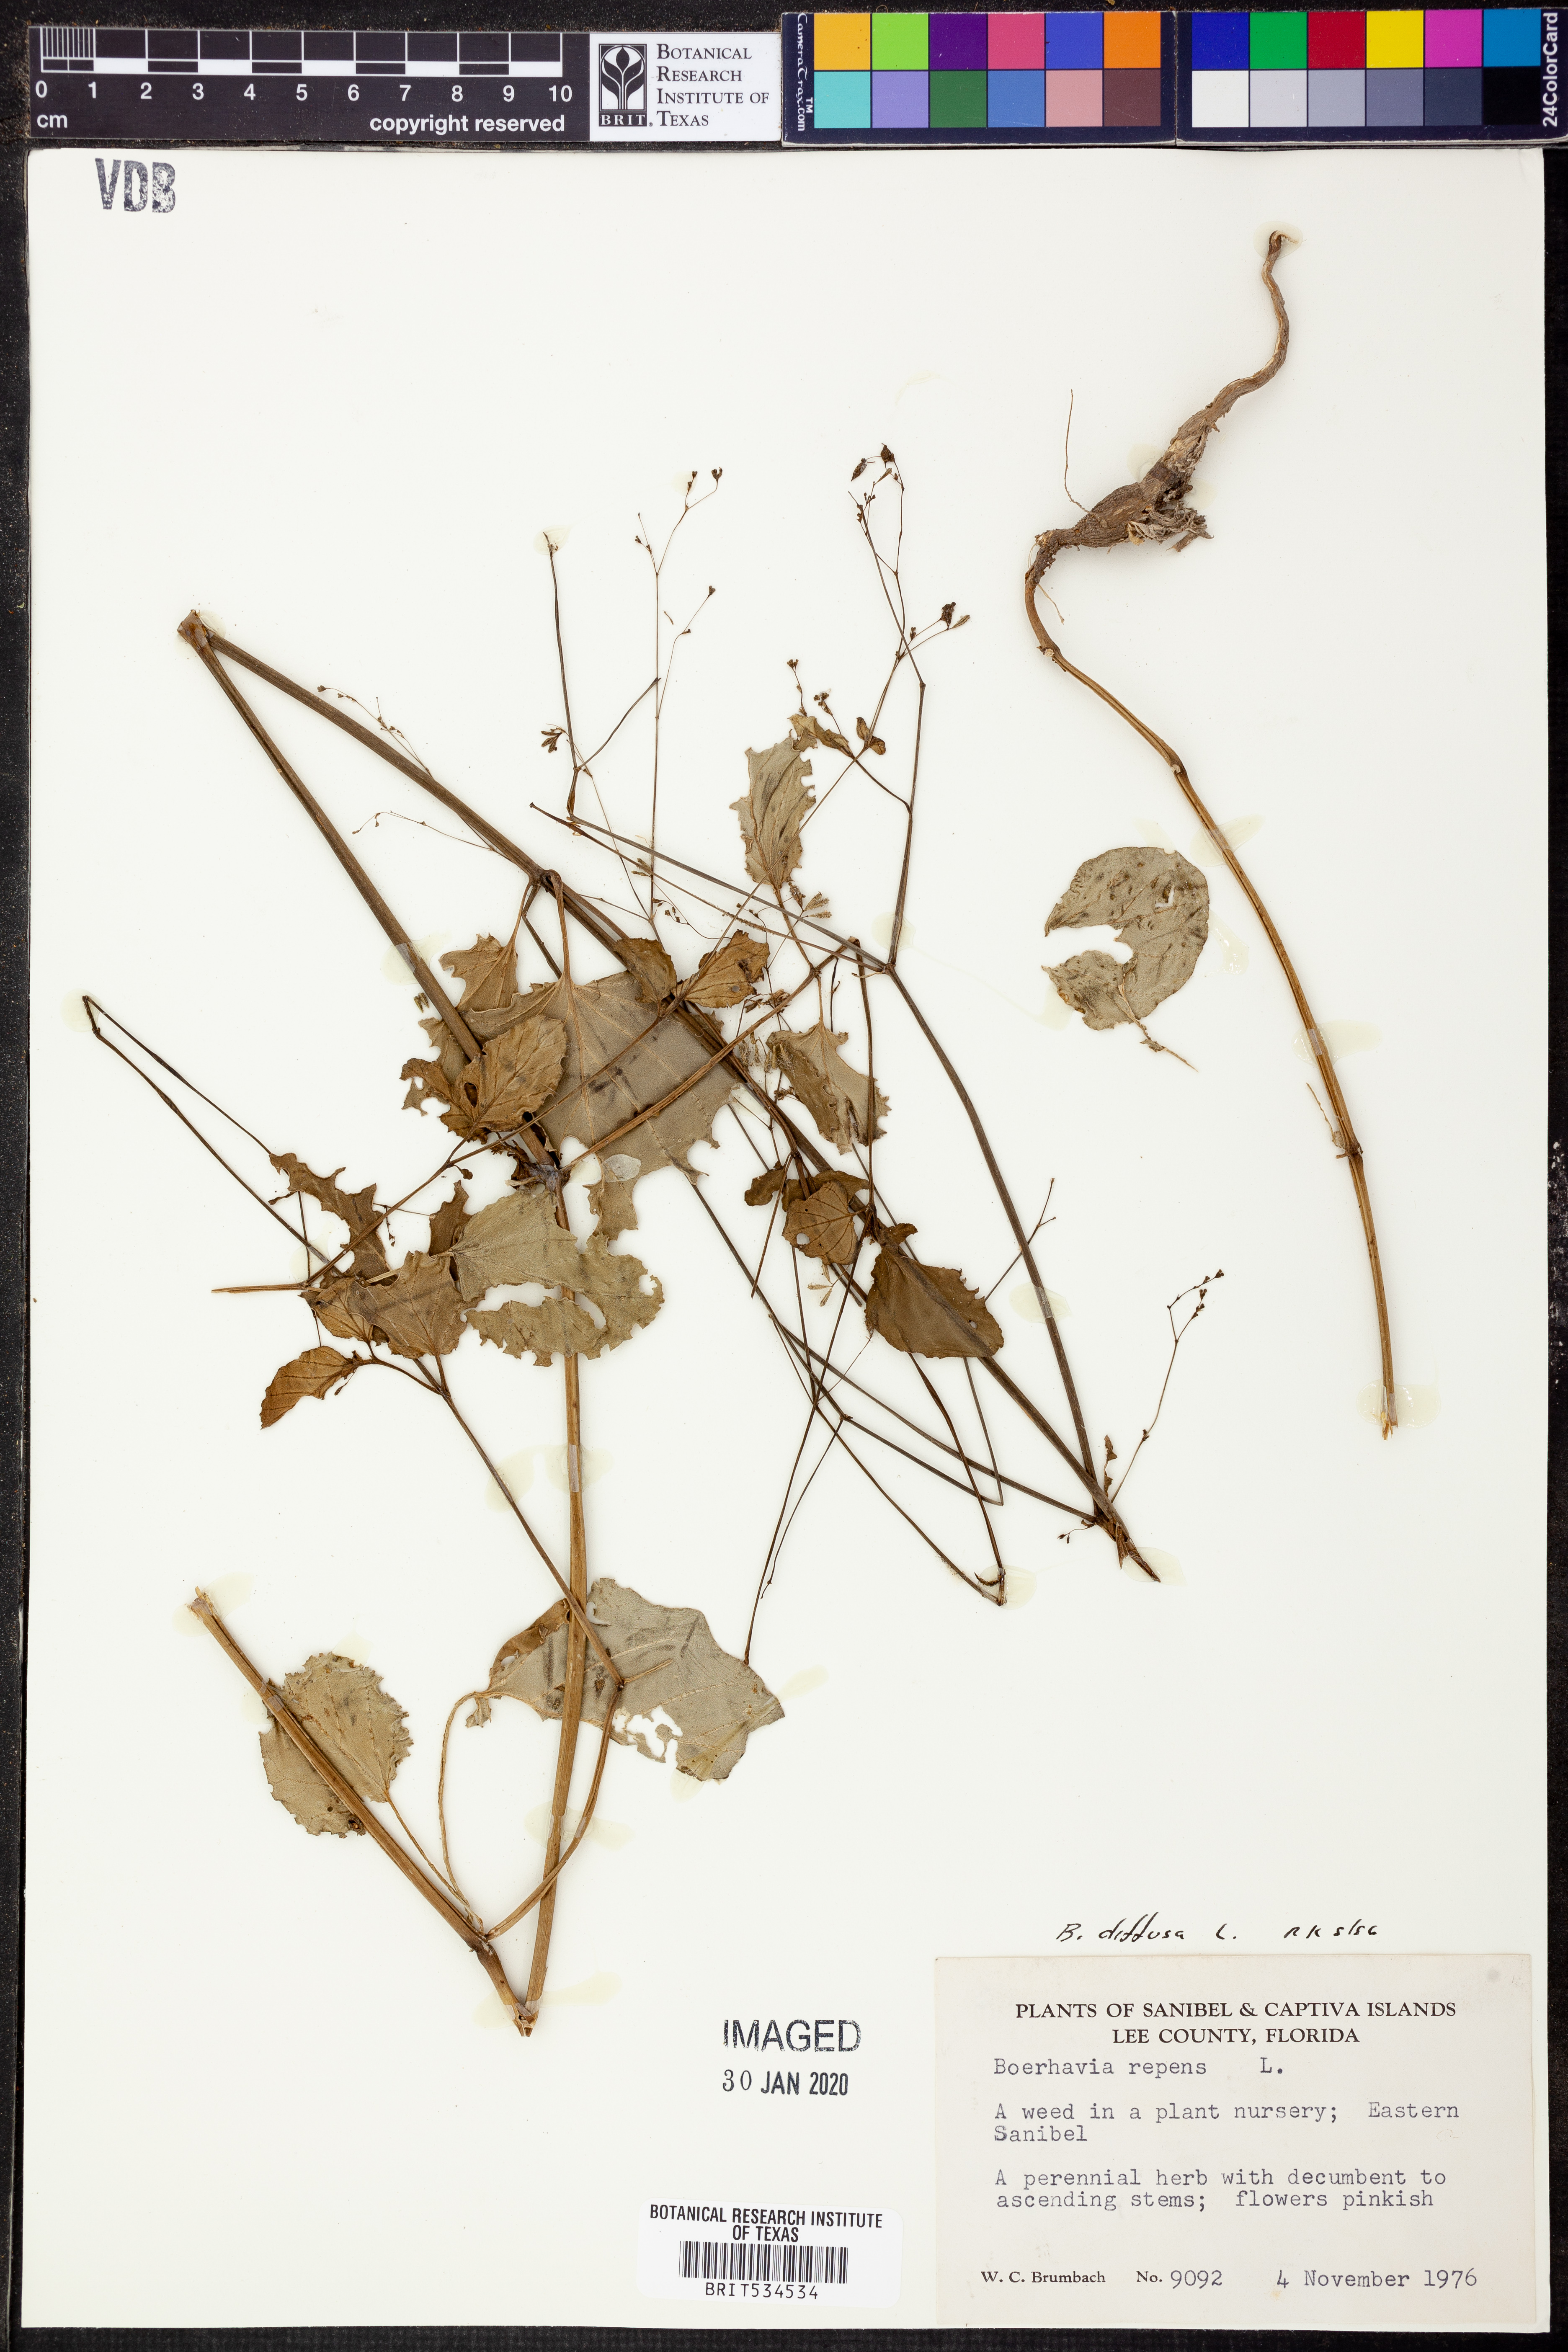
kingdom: Plantae
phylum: Tracheophyta
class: Magnoliopsida
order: Caryophyllales
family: Nyctaginaceae
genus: Boerhavia
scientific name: Boerhavia diffusa
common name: Red spiderling
